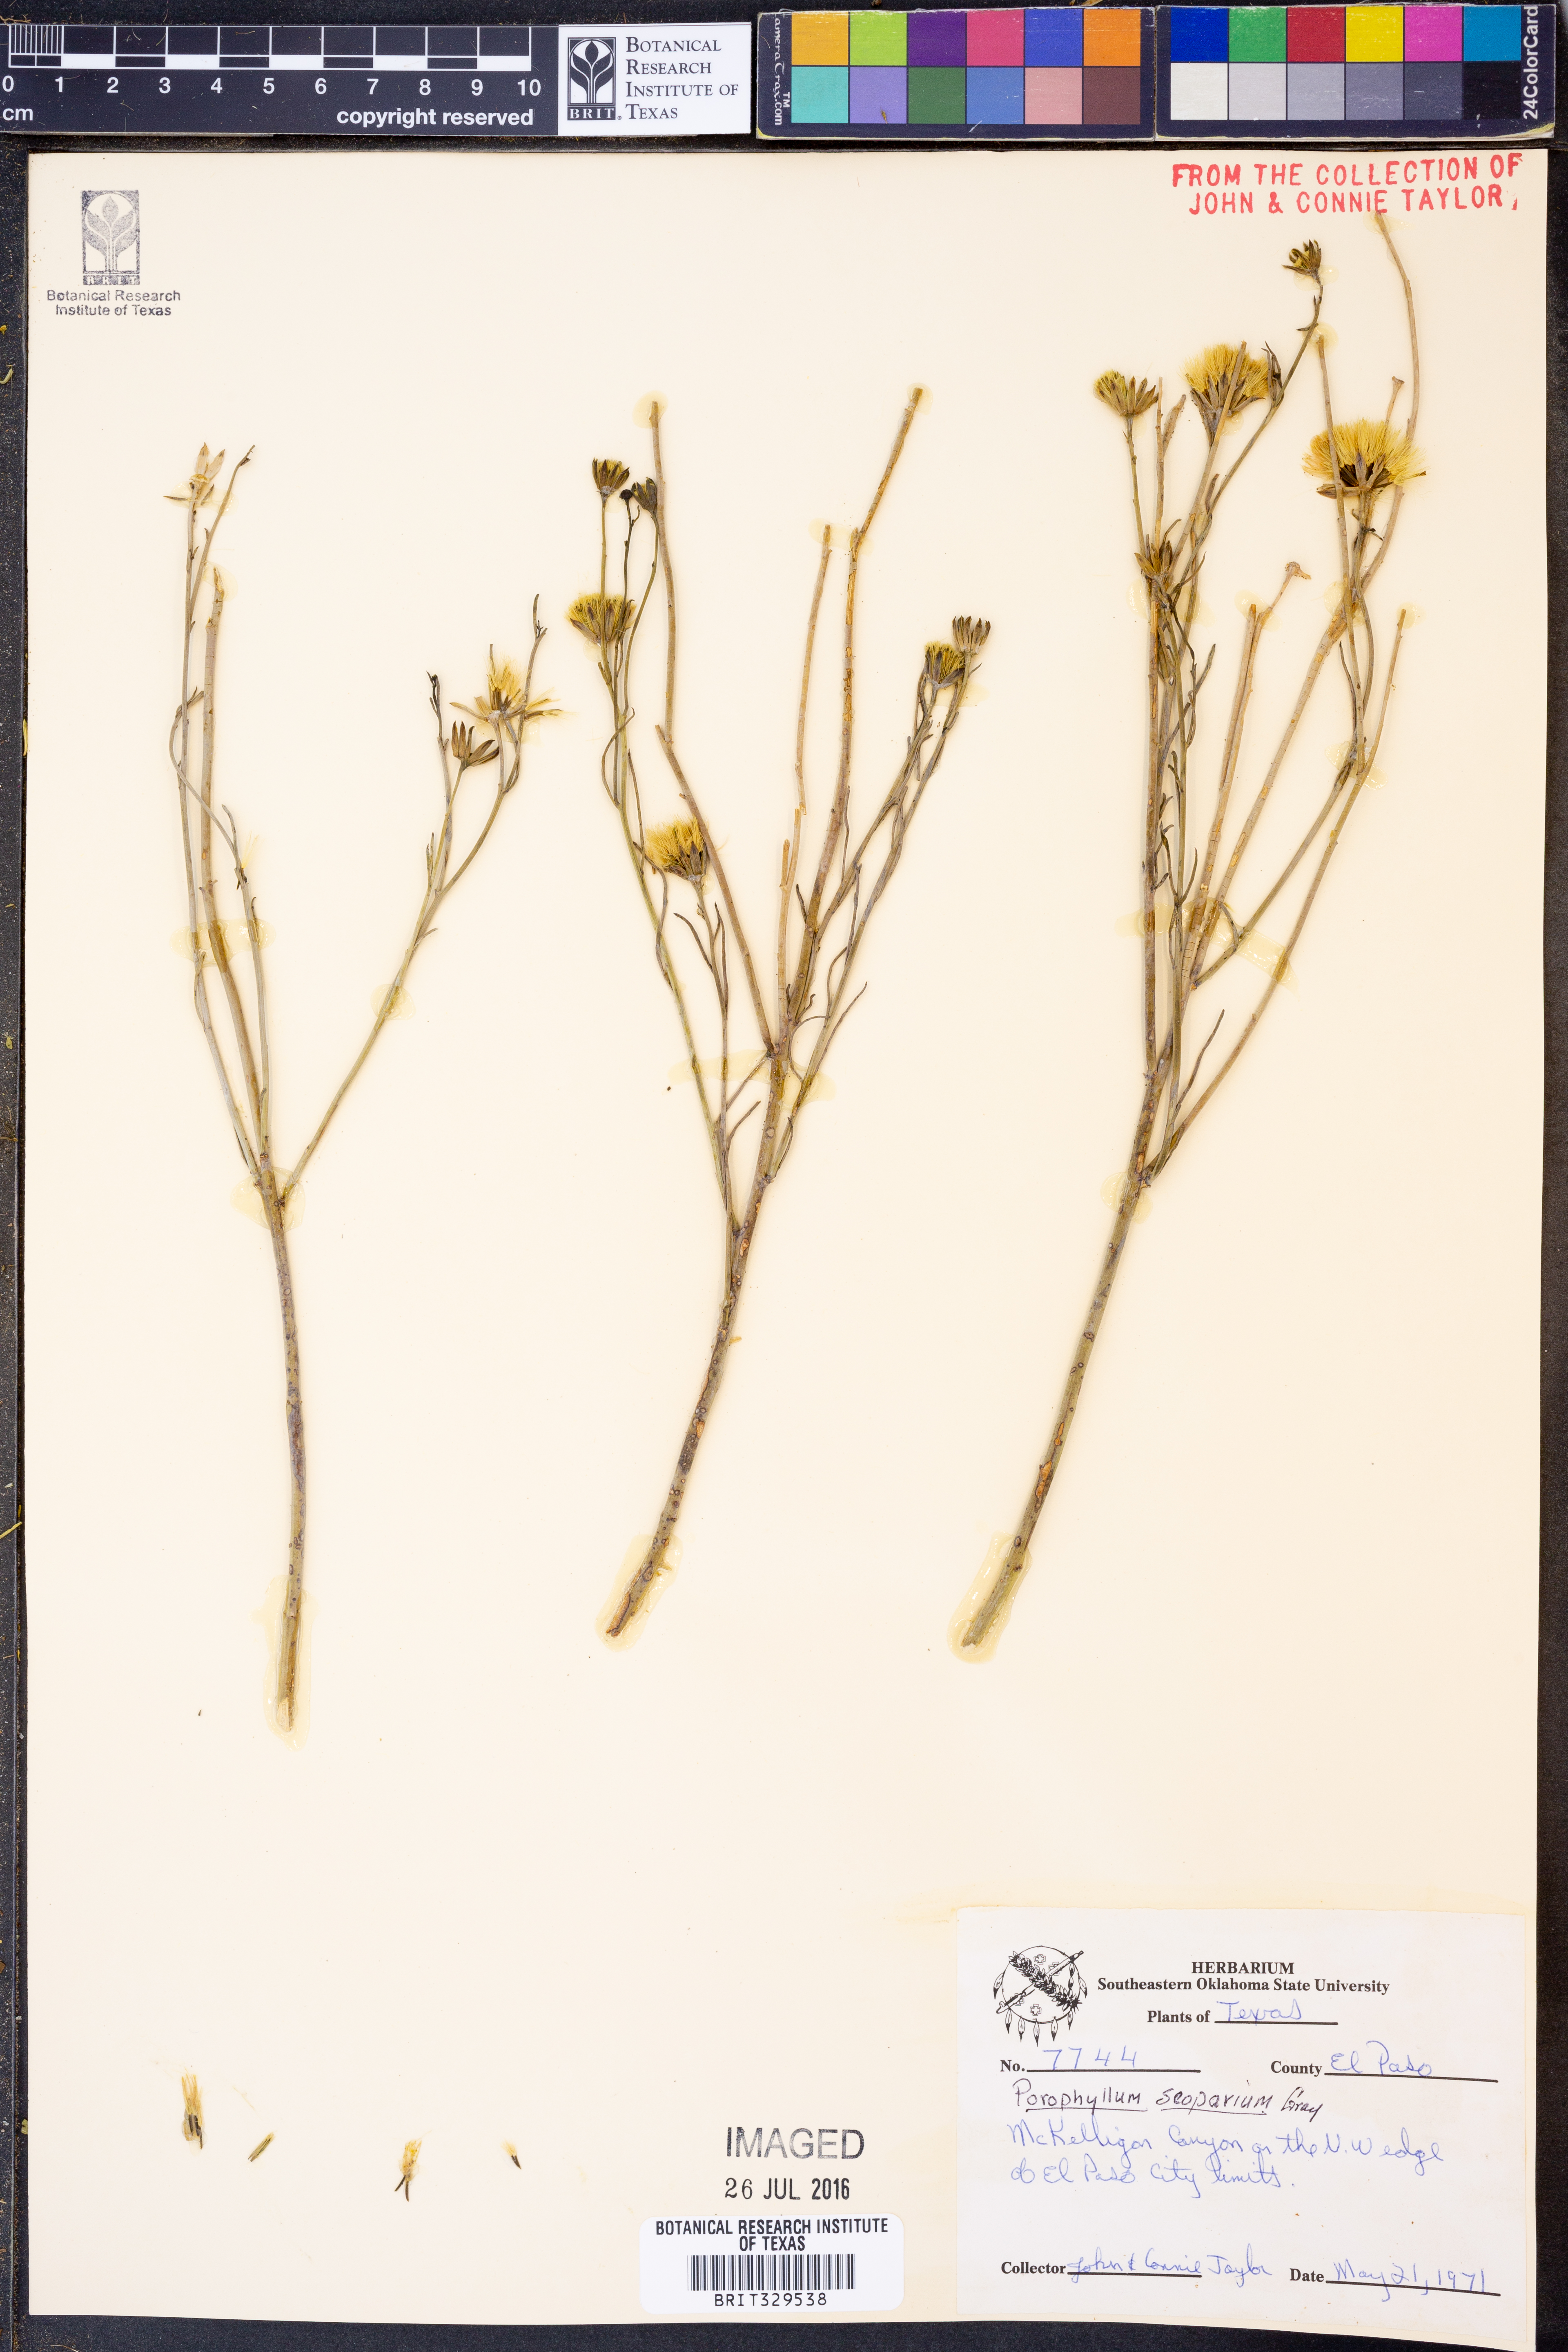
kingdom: Plantae
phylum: Tracheophyta
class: Magnoliopsida
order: Asterales
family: Asteraceae
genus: Porophyllum
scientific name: Porophyllum scoparium
